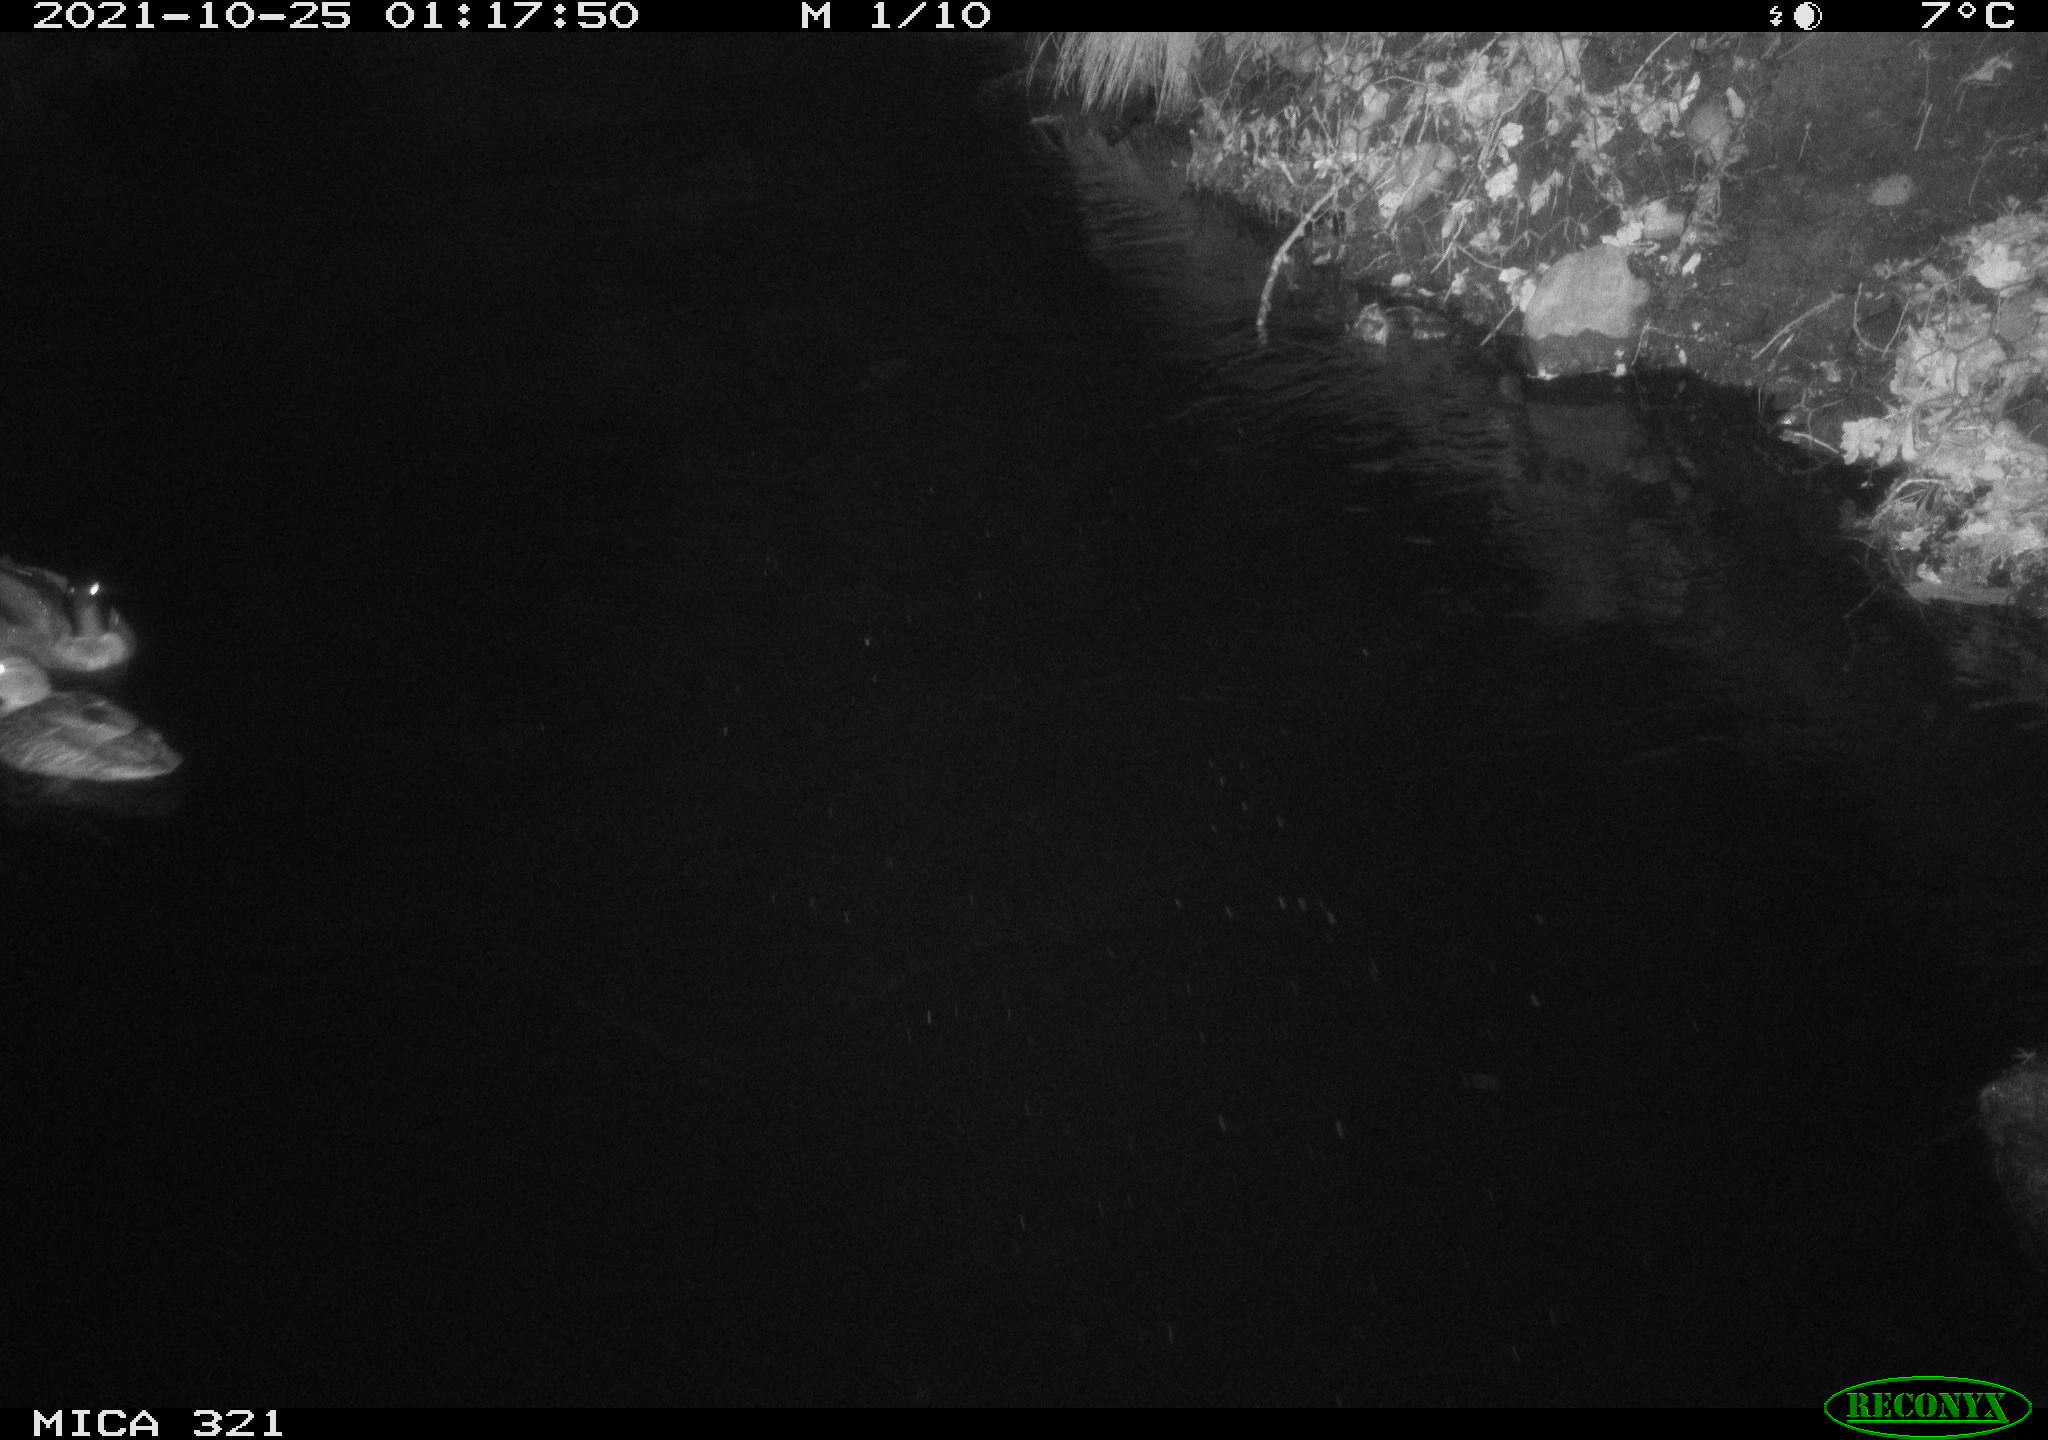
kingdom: Animalia
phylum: Chordata
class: Aves
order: Anseriformes
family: Anatidae
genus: Anas
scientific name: Anas platyrhynchos
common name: Mallard
